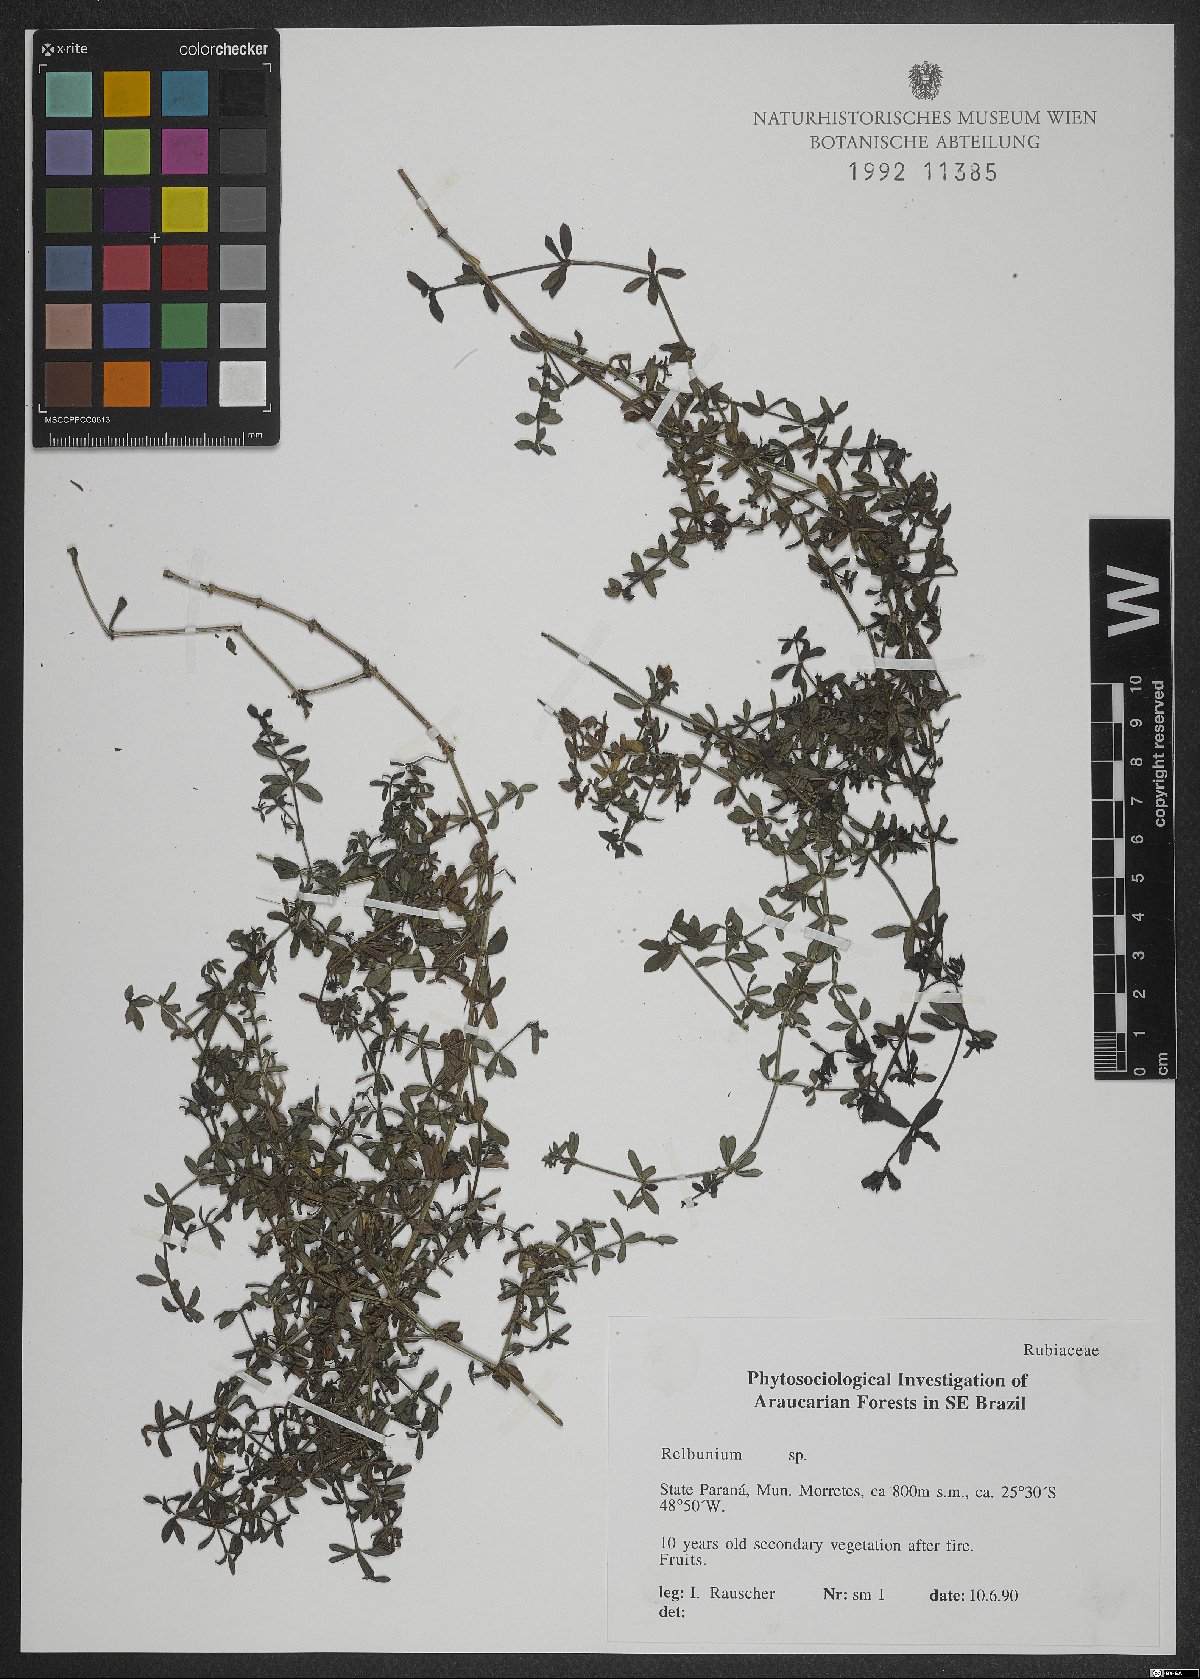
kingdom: Plantae
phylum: Tracheophyta
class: Magnoliopsida
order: Gentianales
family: Rubiaceae
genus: Galium
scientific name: Galium
